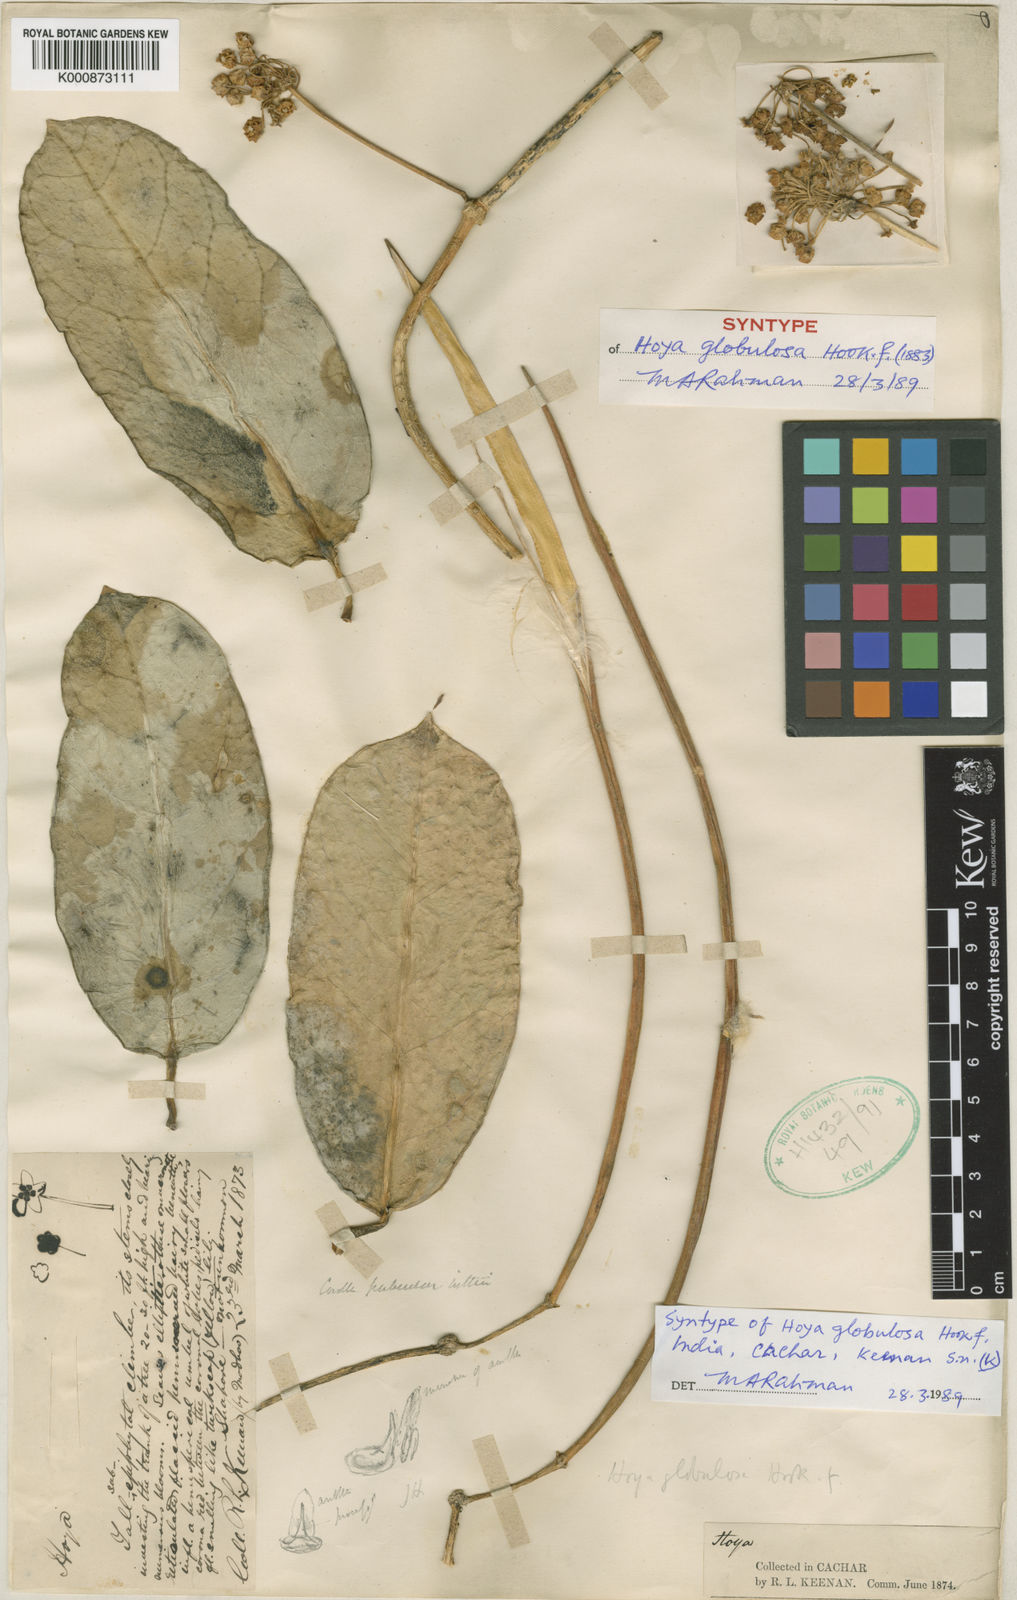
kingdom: Plantae
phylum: Tracheophyta
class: Magnoliopsida
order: Gentianales
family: Apocynaceae
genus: Hoya
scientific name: Hoya globulosa
